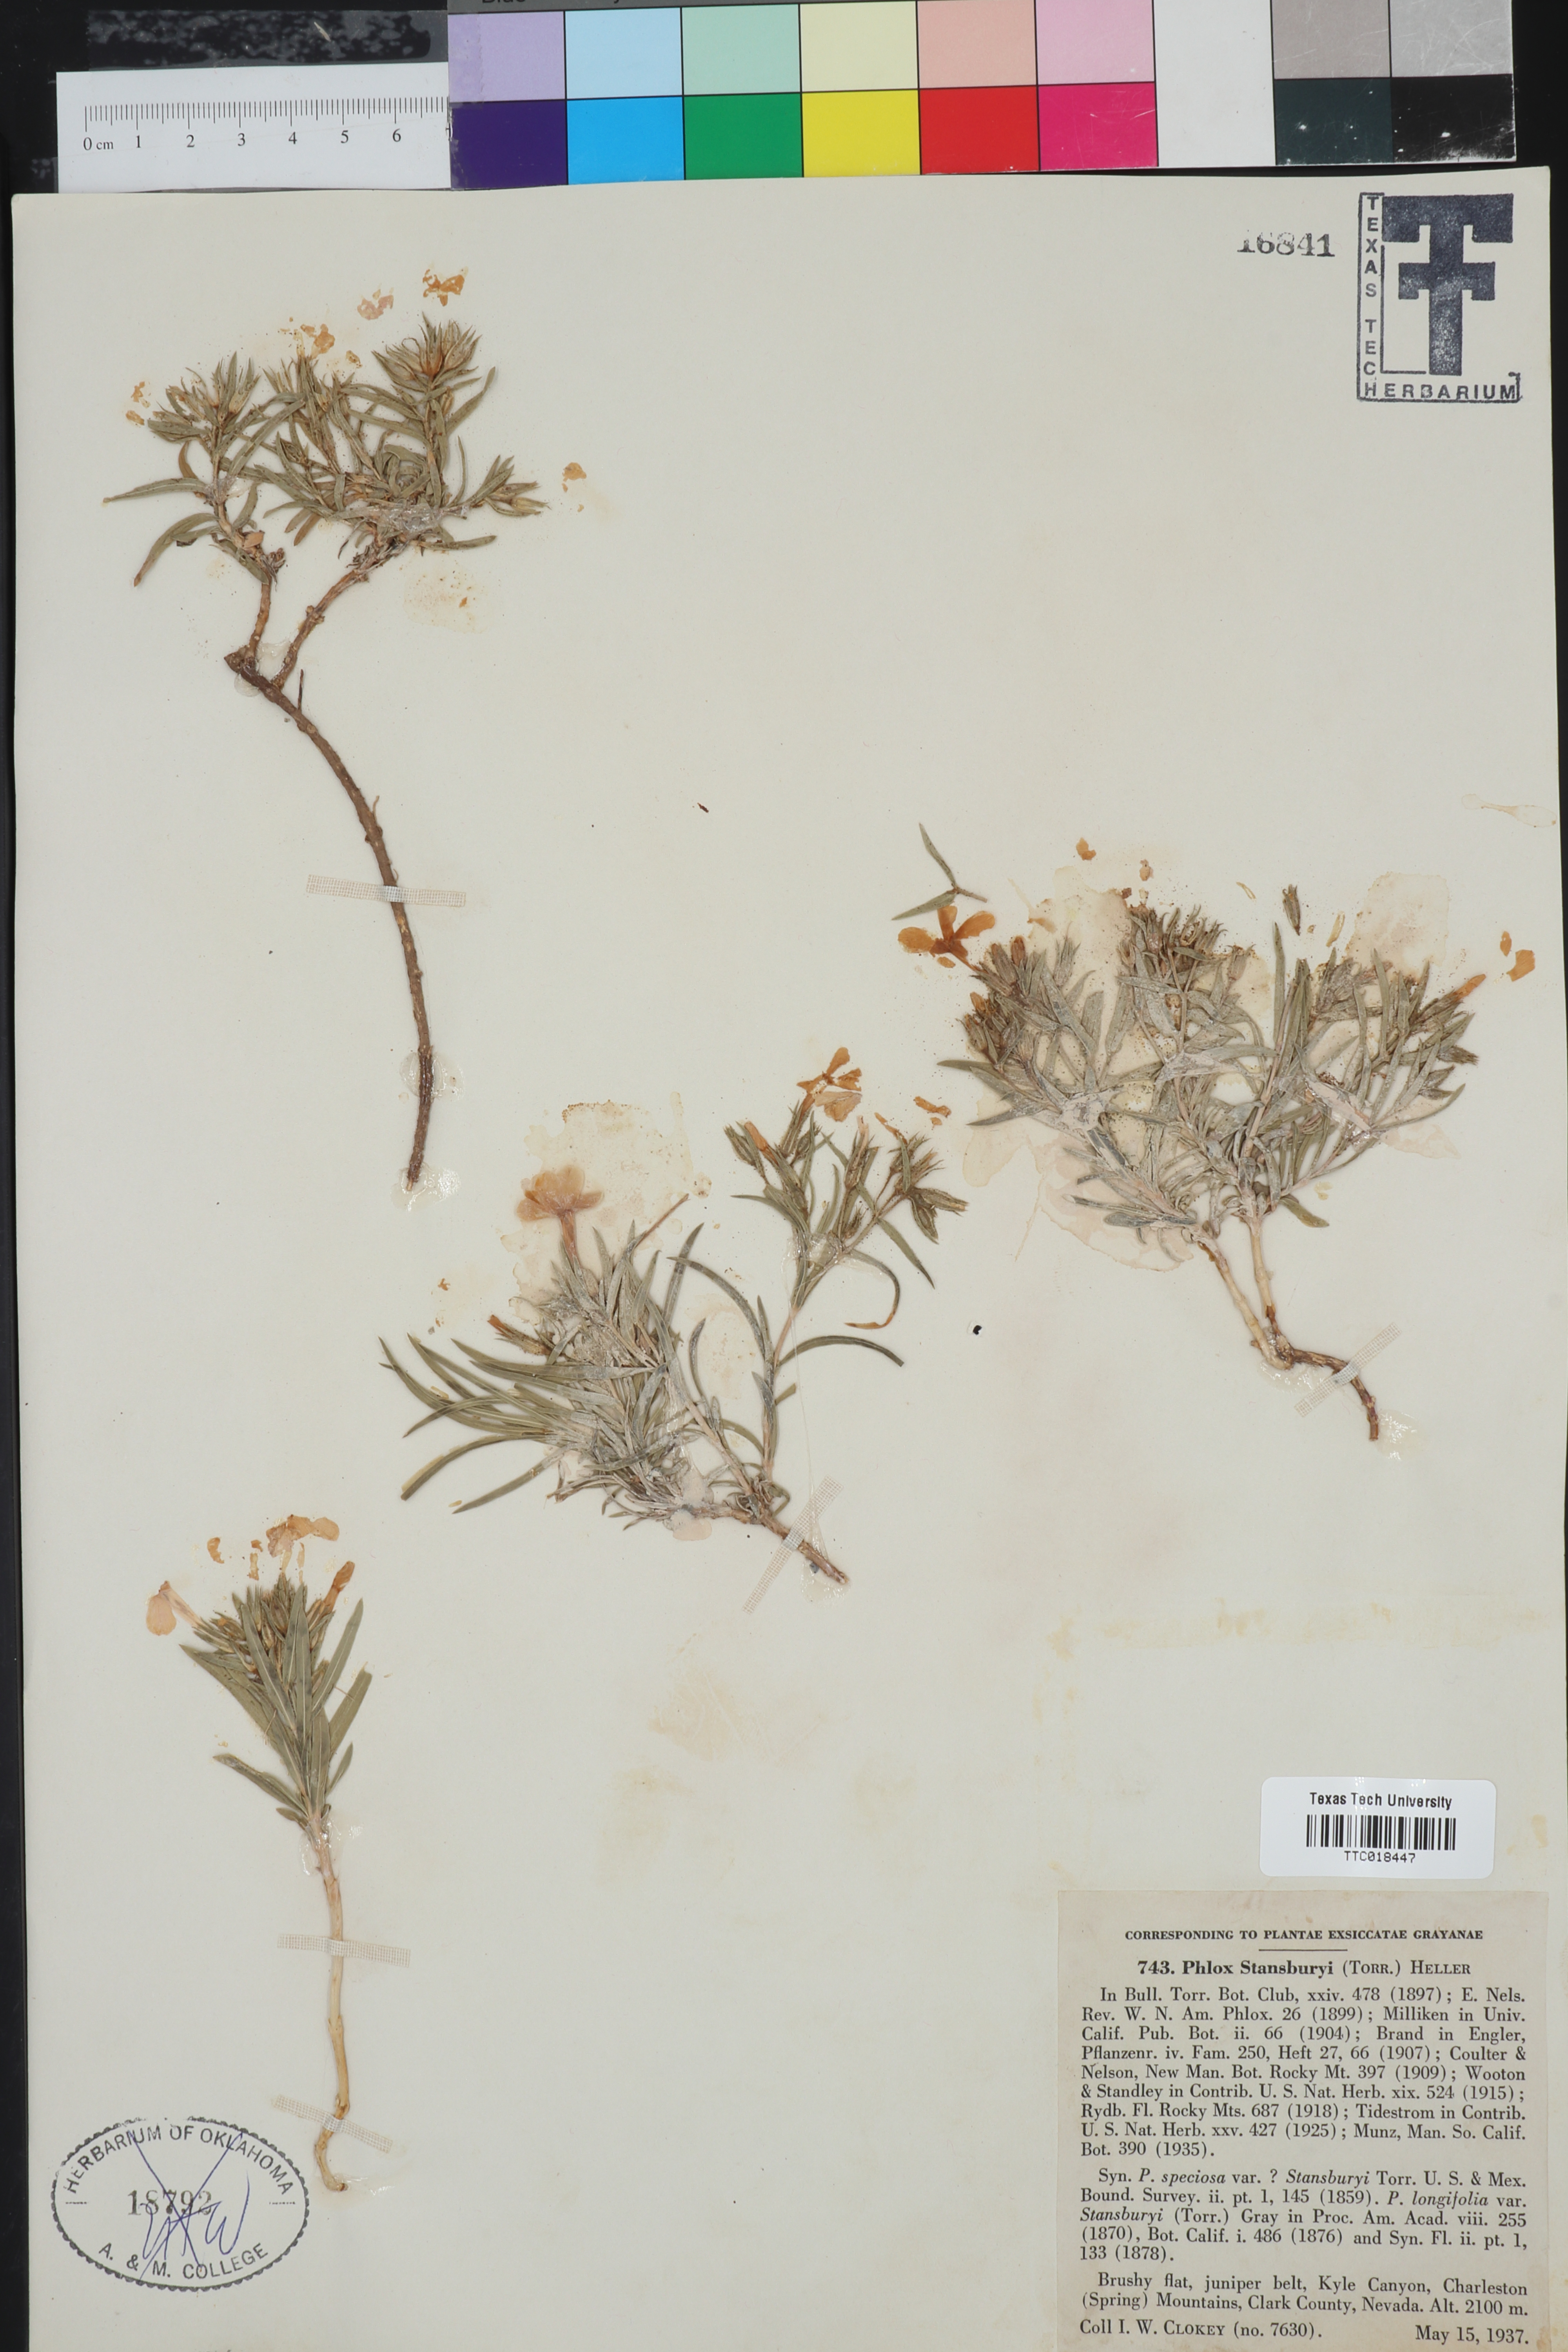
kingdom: Plantae
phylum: Tracheophyta
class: Magnoliopsida
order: Ericales
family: Polemoniaceae
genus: Phlox
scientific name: Phlox longifolia
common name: Longleaf phlox
